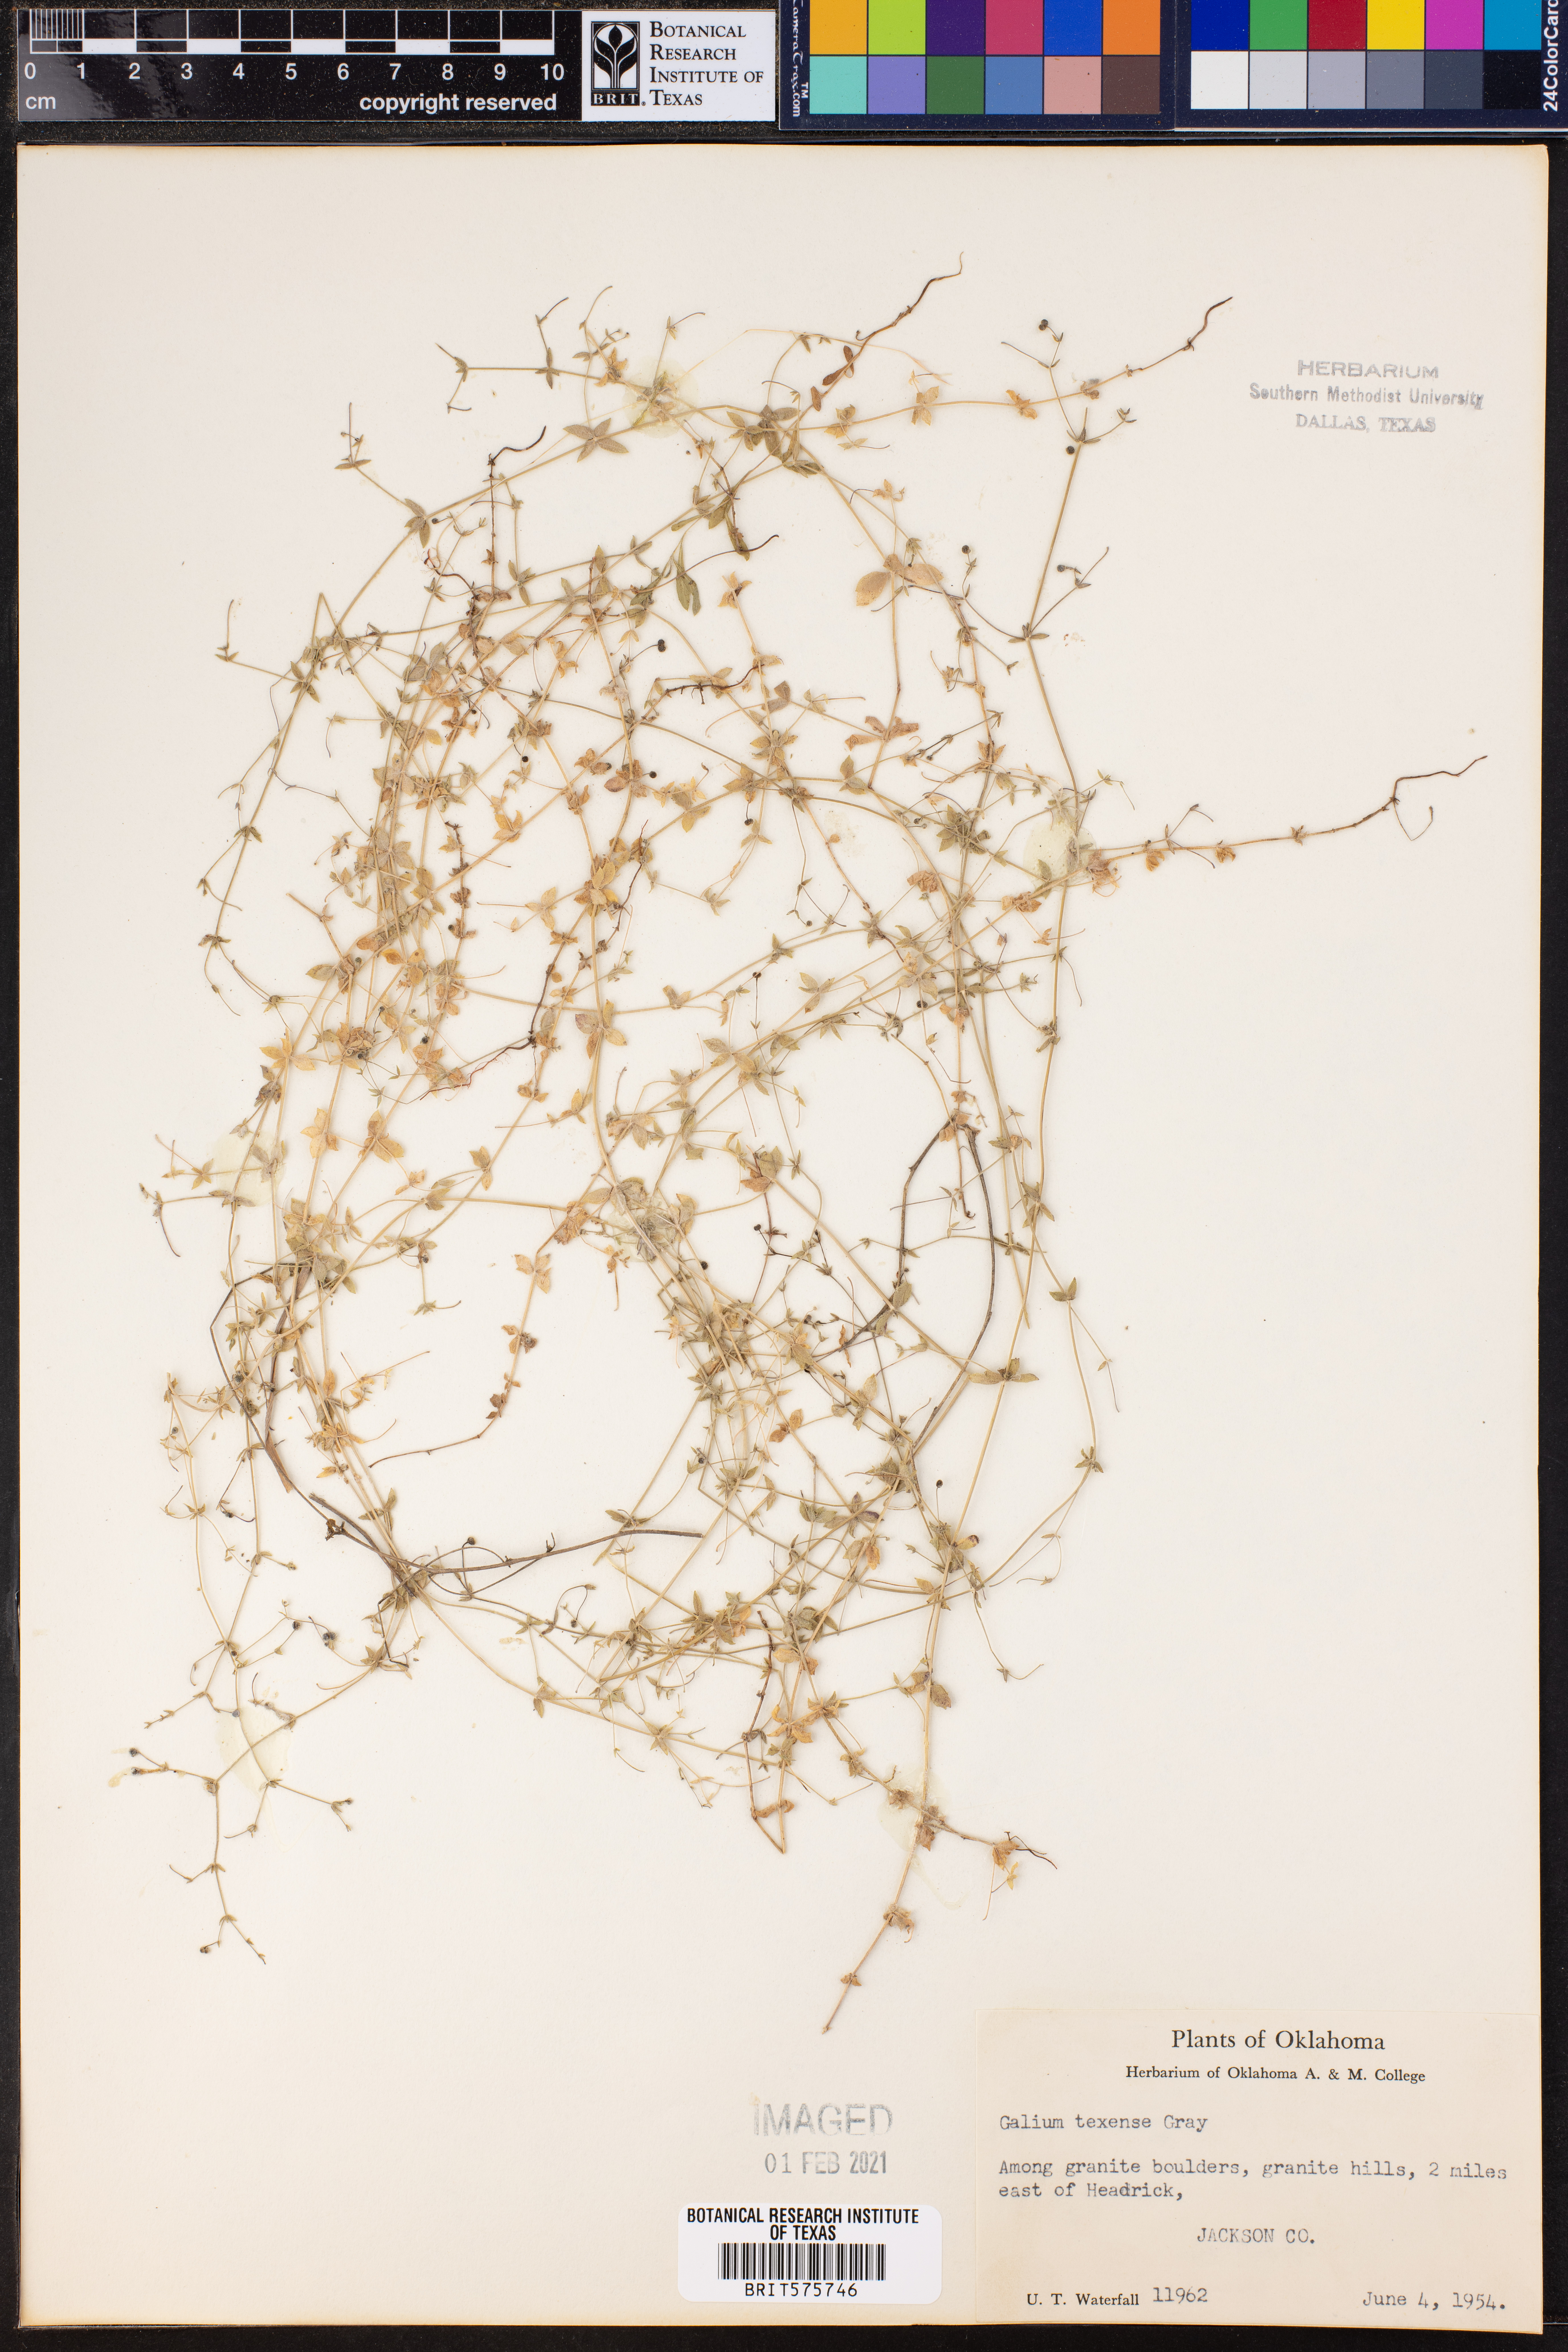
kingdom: Plantae
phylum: Tracheophyta
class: Magnoliopsida
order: Gentianales
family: Rubiaceae
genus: Galium
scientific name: Galium texense
